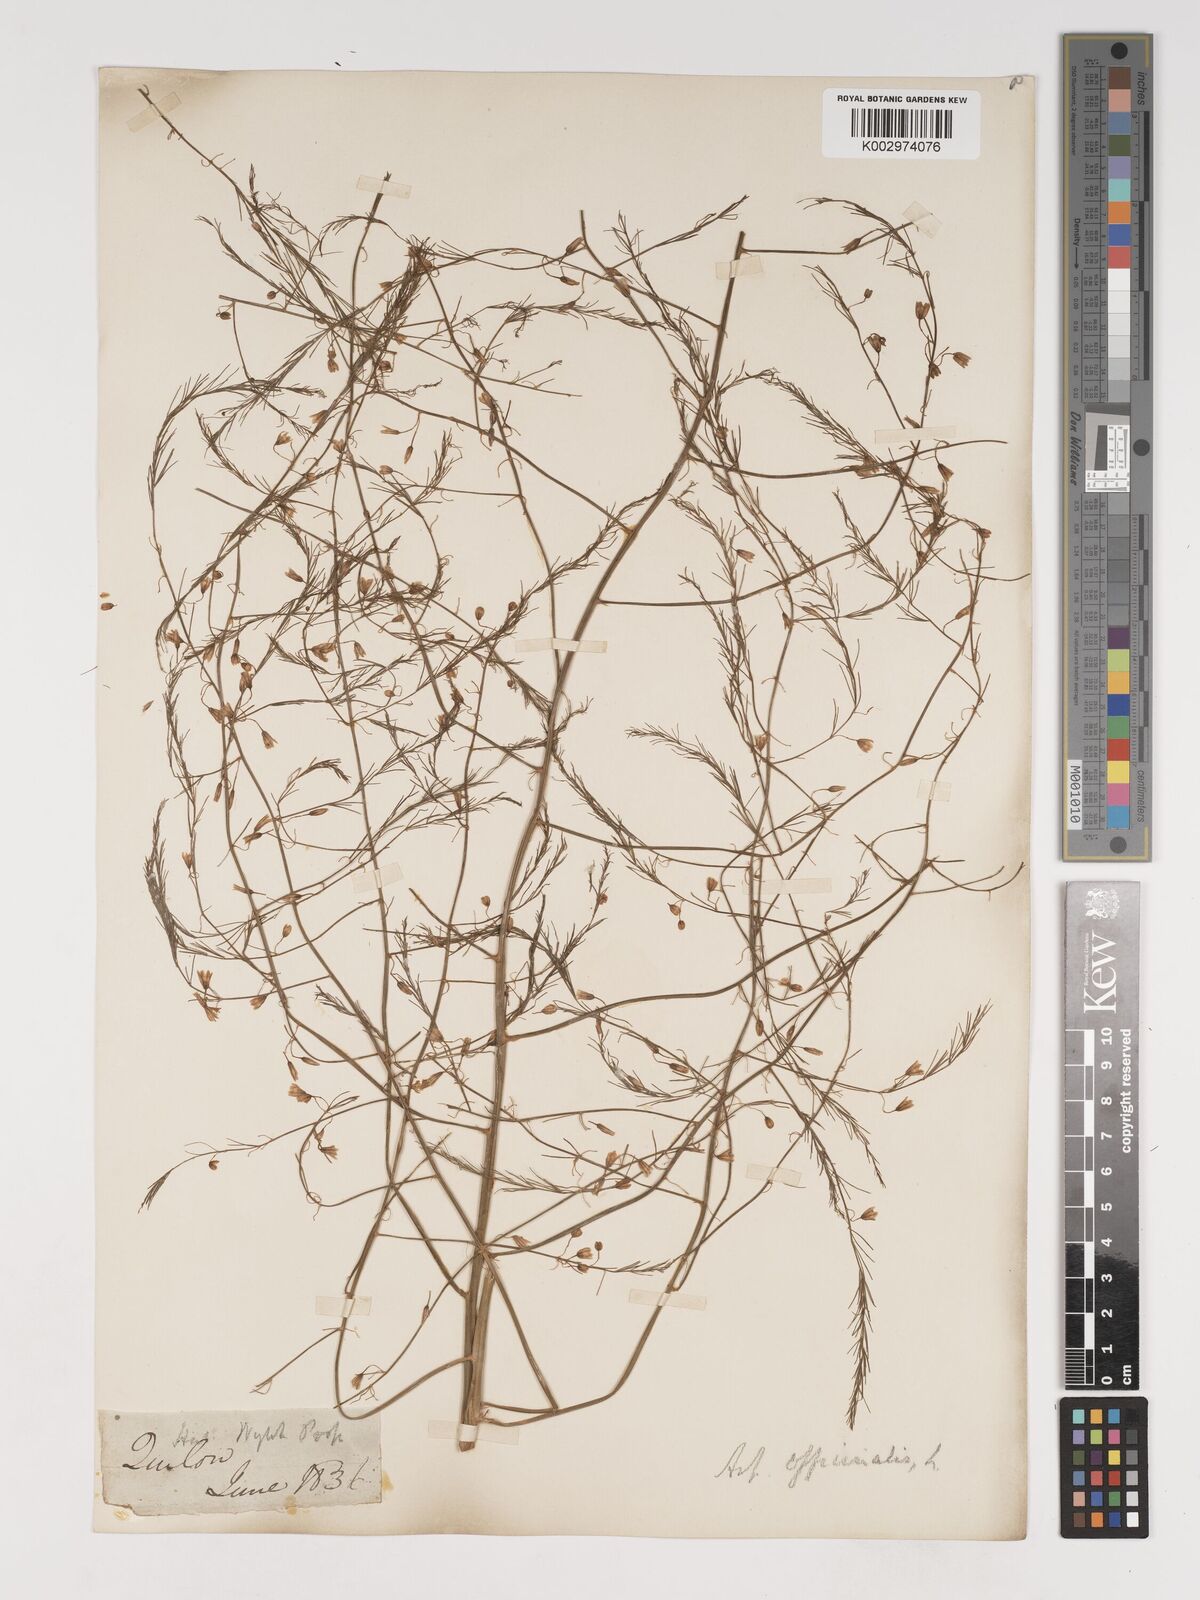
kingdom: Plantae
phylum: Tracheophyta
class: Liliopsida
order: Asparagales
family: Asparagaceae
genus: Asparagus
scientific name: Asparagus officinalis
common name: Garden asparagus
